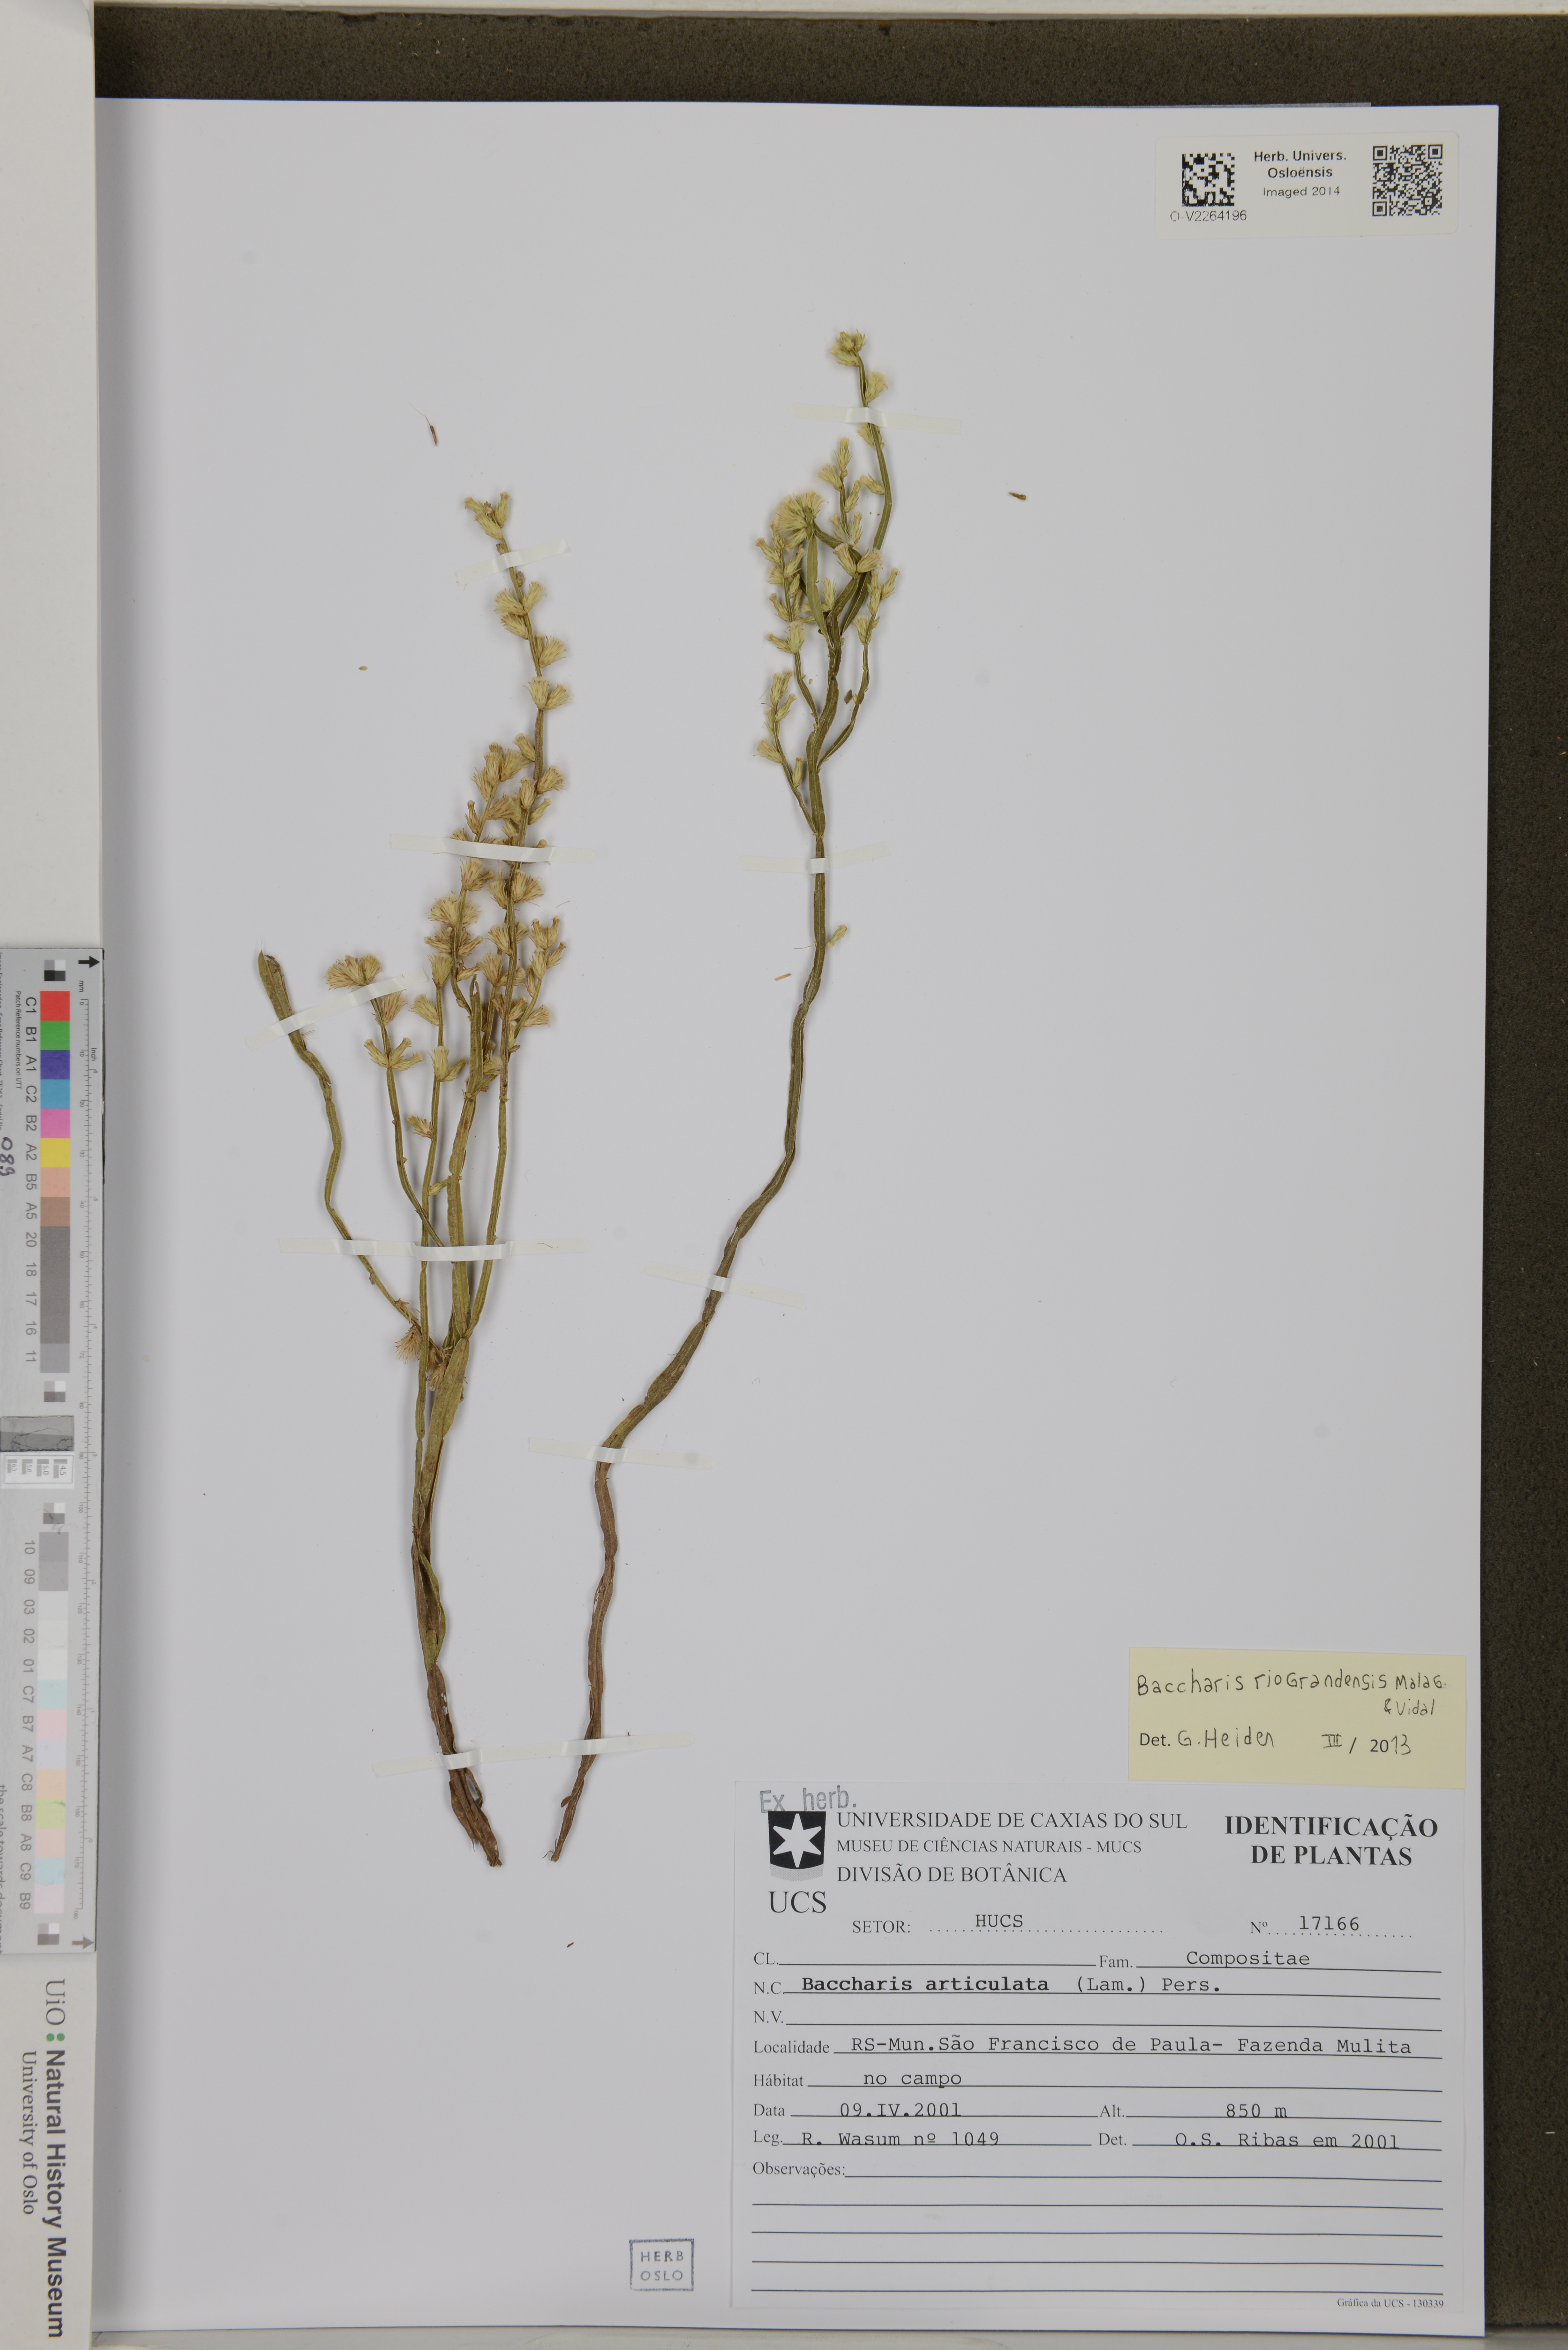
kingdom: Plantae
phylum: Tracheophyta
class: Magnoliopsida
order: Asterales
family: Asteraceae
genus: Baccharis
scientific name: Baccharis riograndensis
